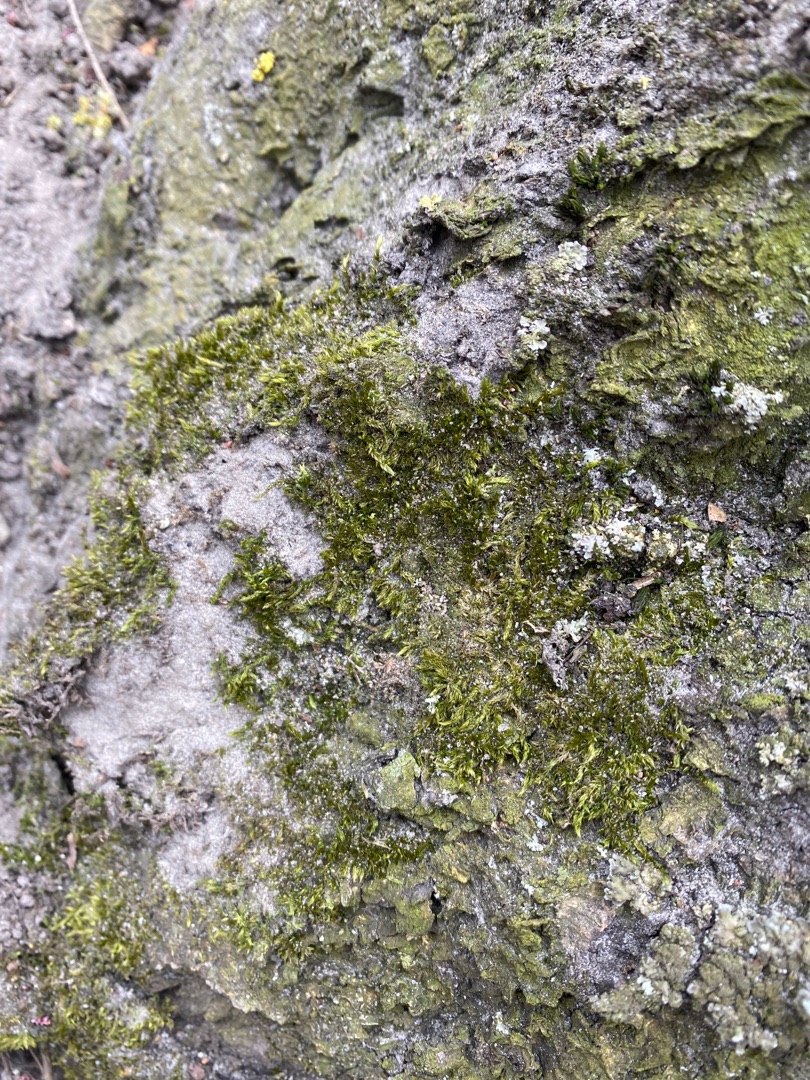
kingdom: Plantae
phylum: Bryophyta
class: Bryopsida
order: Hypnales
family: Hypnaceae
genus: Hypnum
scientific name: Hypnum
